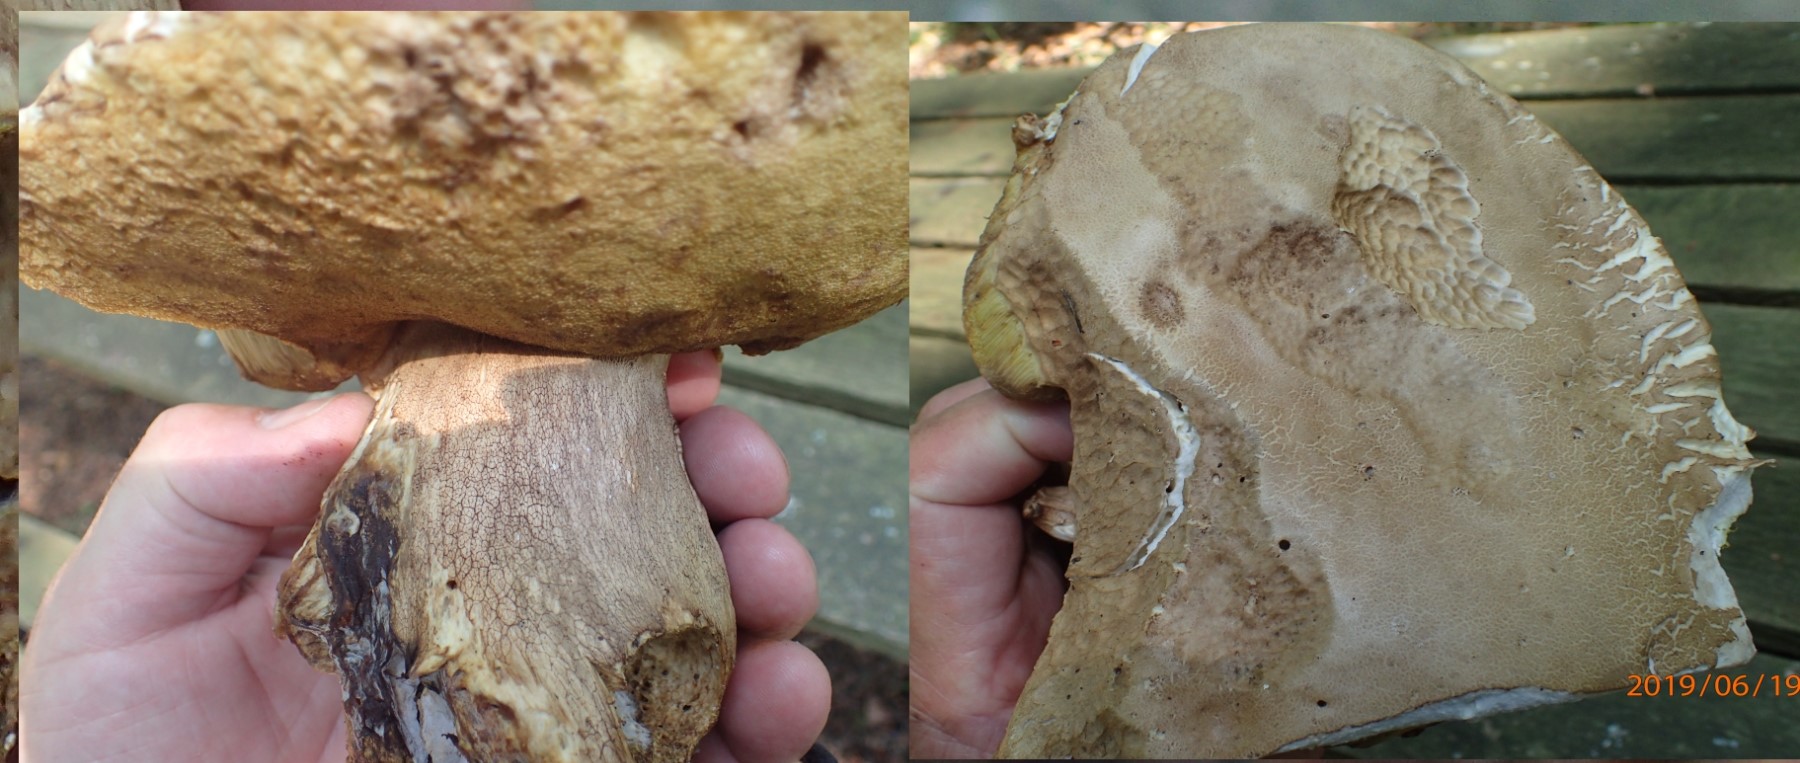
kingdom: Fungi
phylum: Basidiomycota
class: Agaricomycetes
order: Boletales
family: Boletaceae
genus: Boletus
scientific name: Boletus reticulatus
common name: sommer-rørhat
